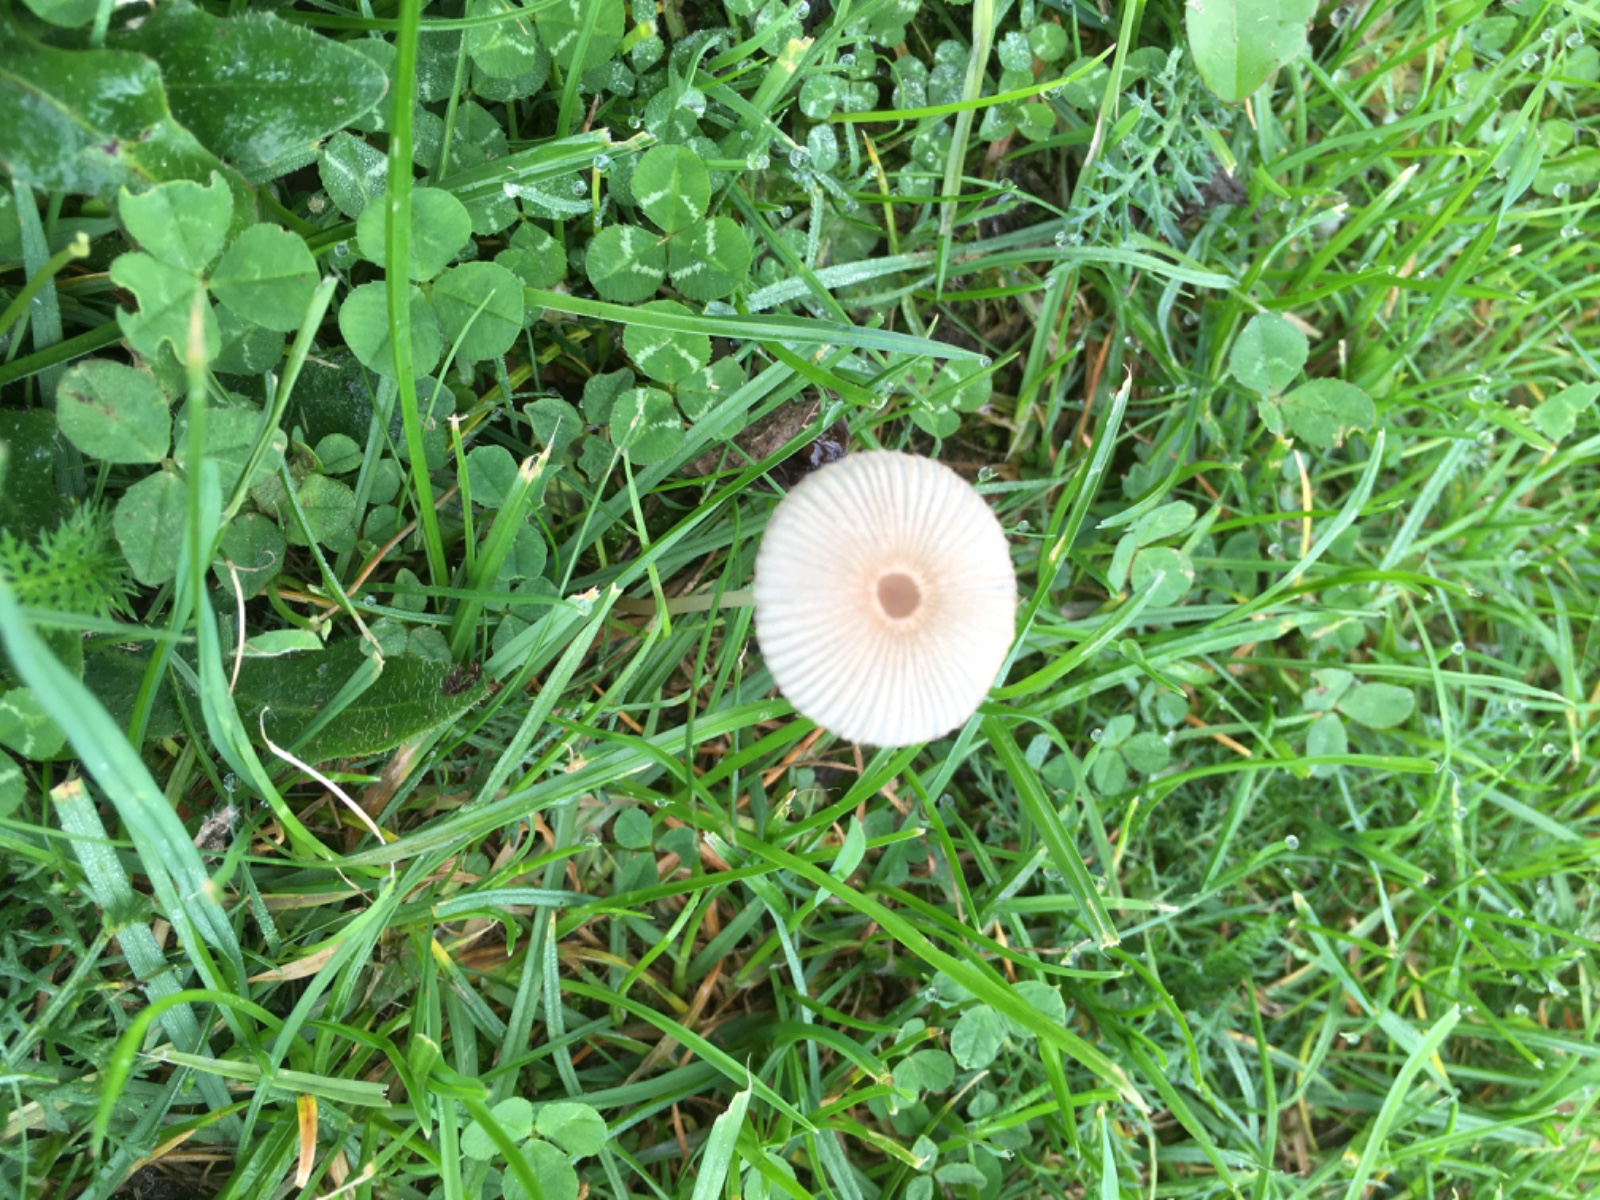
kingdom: Fungi
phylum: Basidiomycota
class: Agaricomycetes
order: Agaricales
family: Psathyrellaceae
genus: Parasola
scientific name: Parasola plicatilis
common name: plæne-hjulhat
